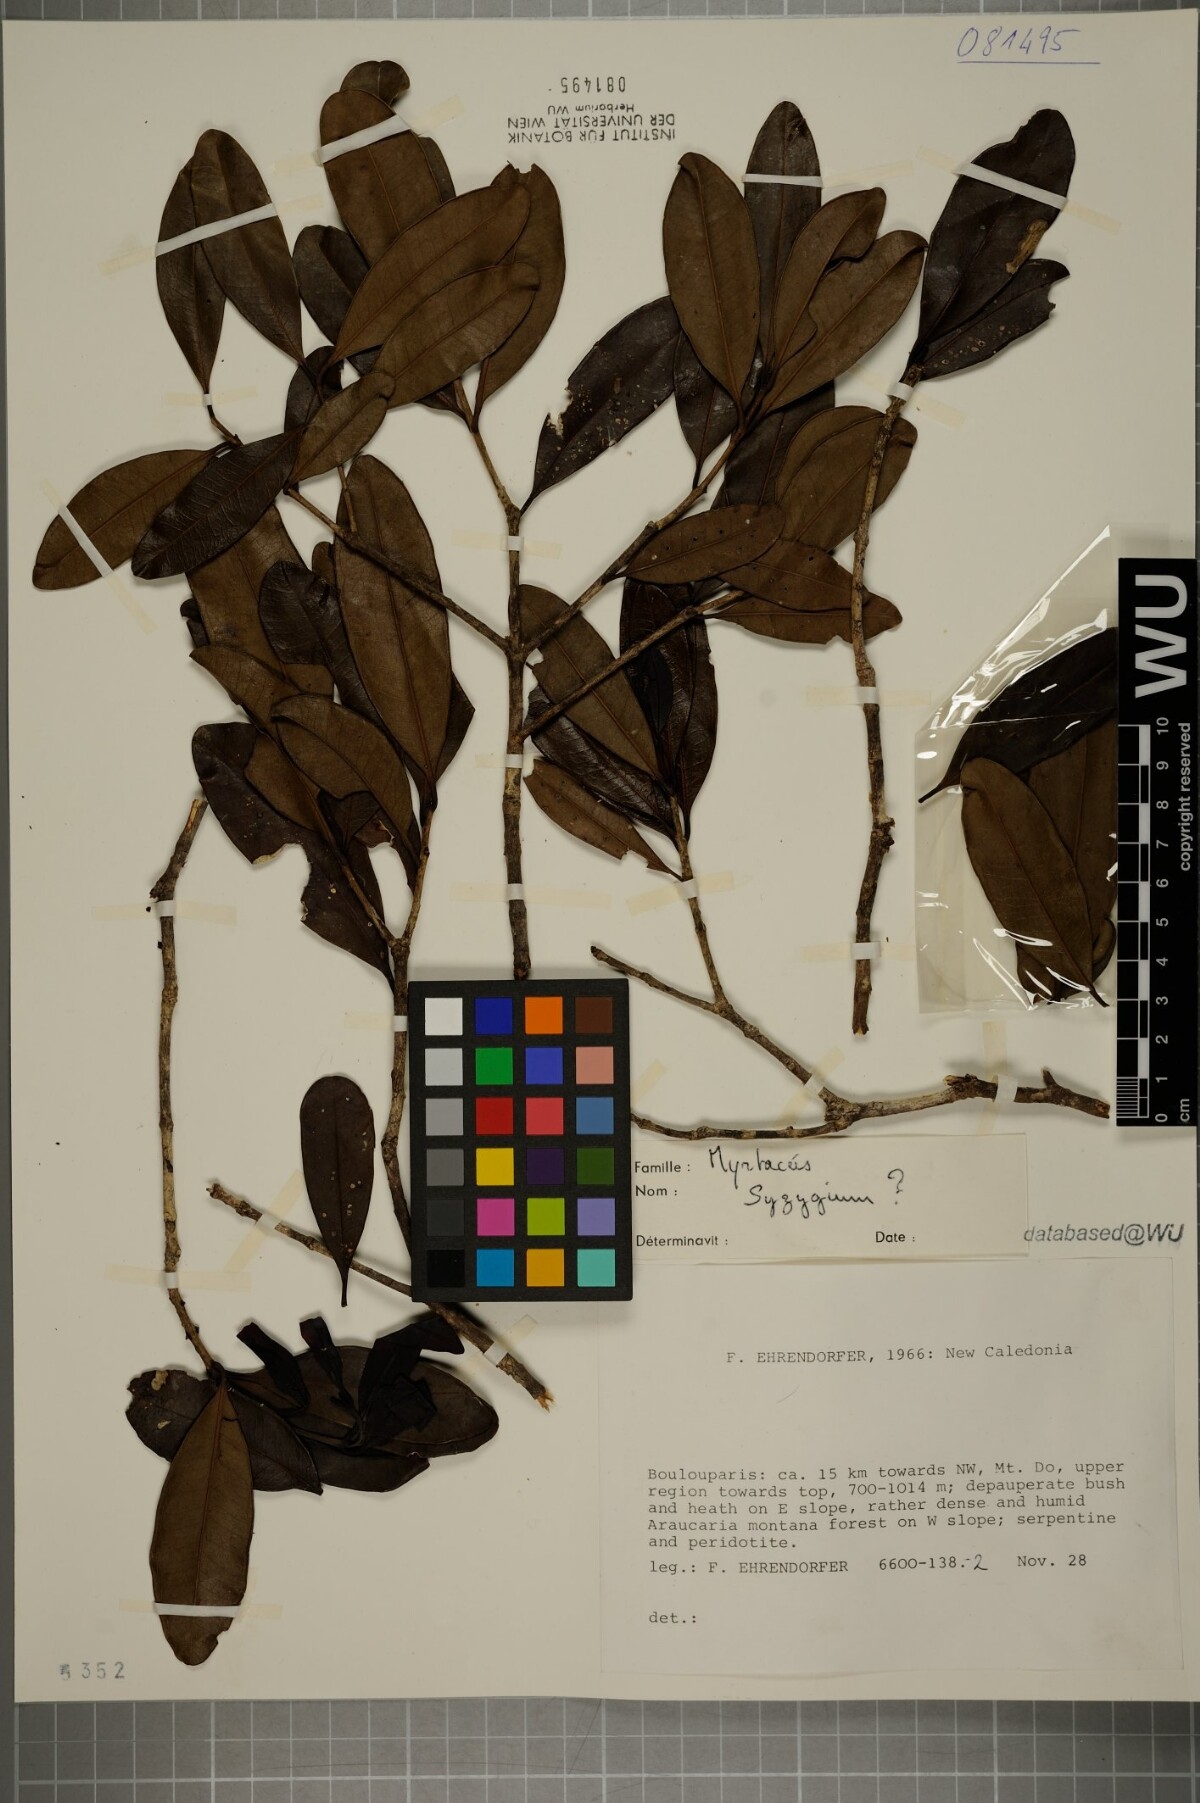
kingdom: Plantae
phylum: Tracheophyta
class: Magnoliopsida
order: Myrtales
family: Myrtaceae
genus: Syzygium
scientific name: Syzygium
